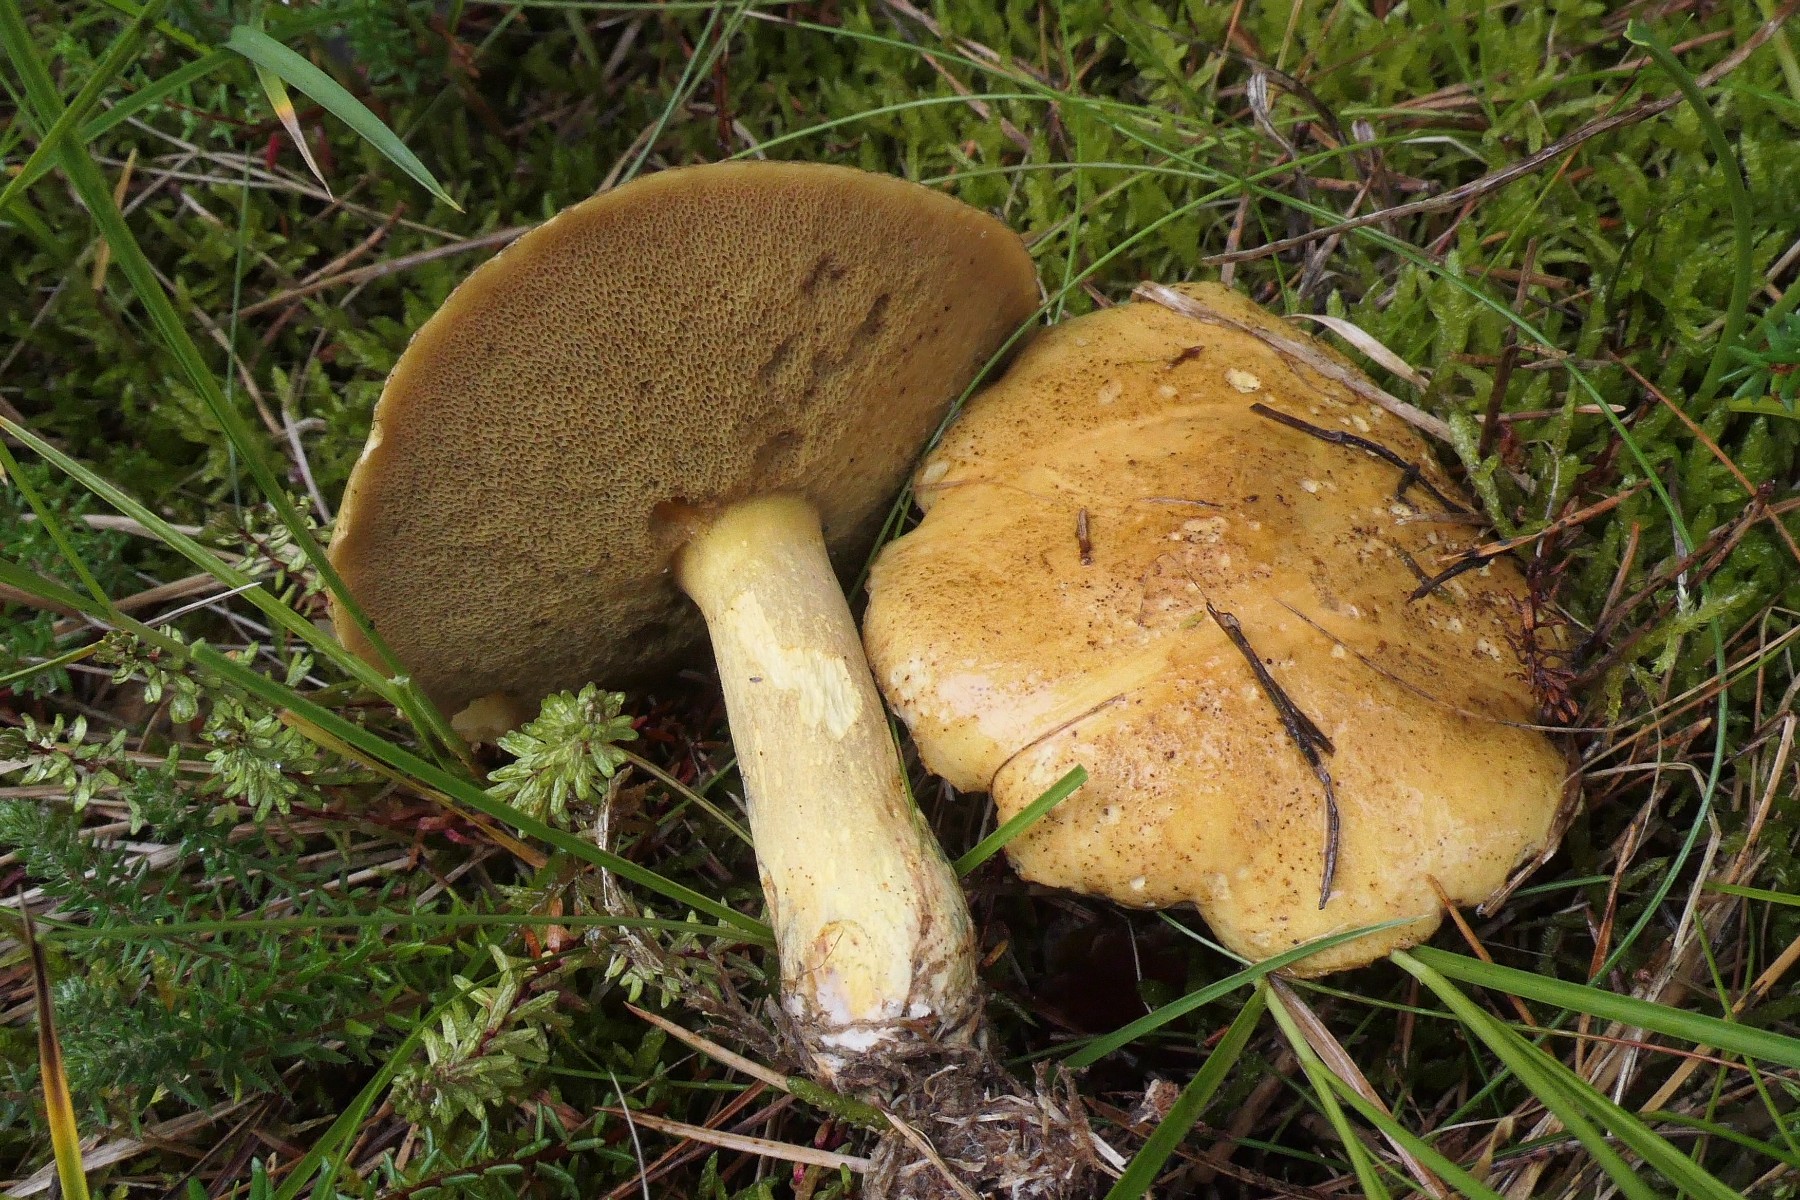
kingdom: Fungi
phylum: Basidiomycota
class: Agaricomycetes
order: Boletales
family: Suillaceae
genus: Suillus
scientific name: Suillus variegatus
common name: broget slimrørhat
